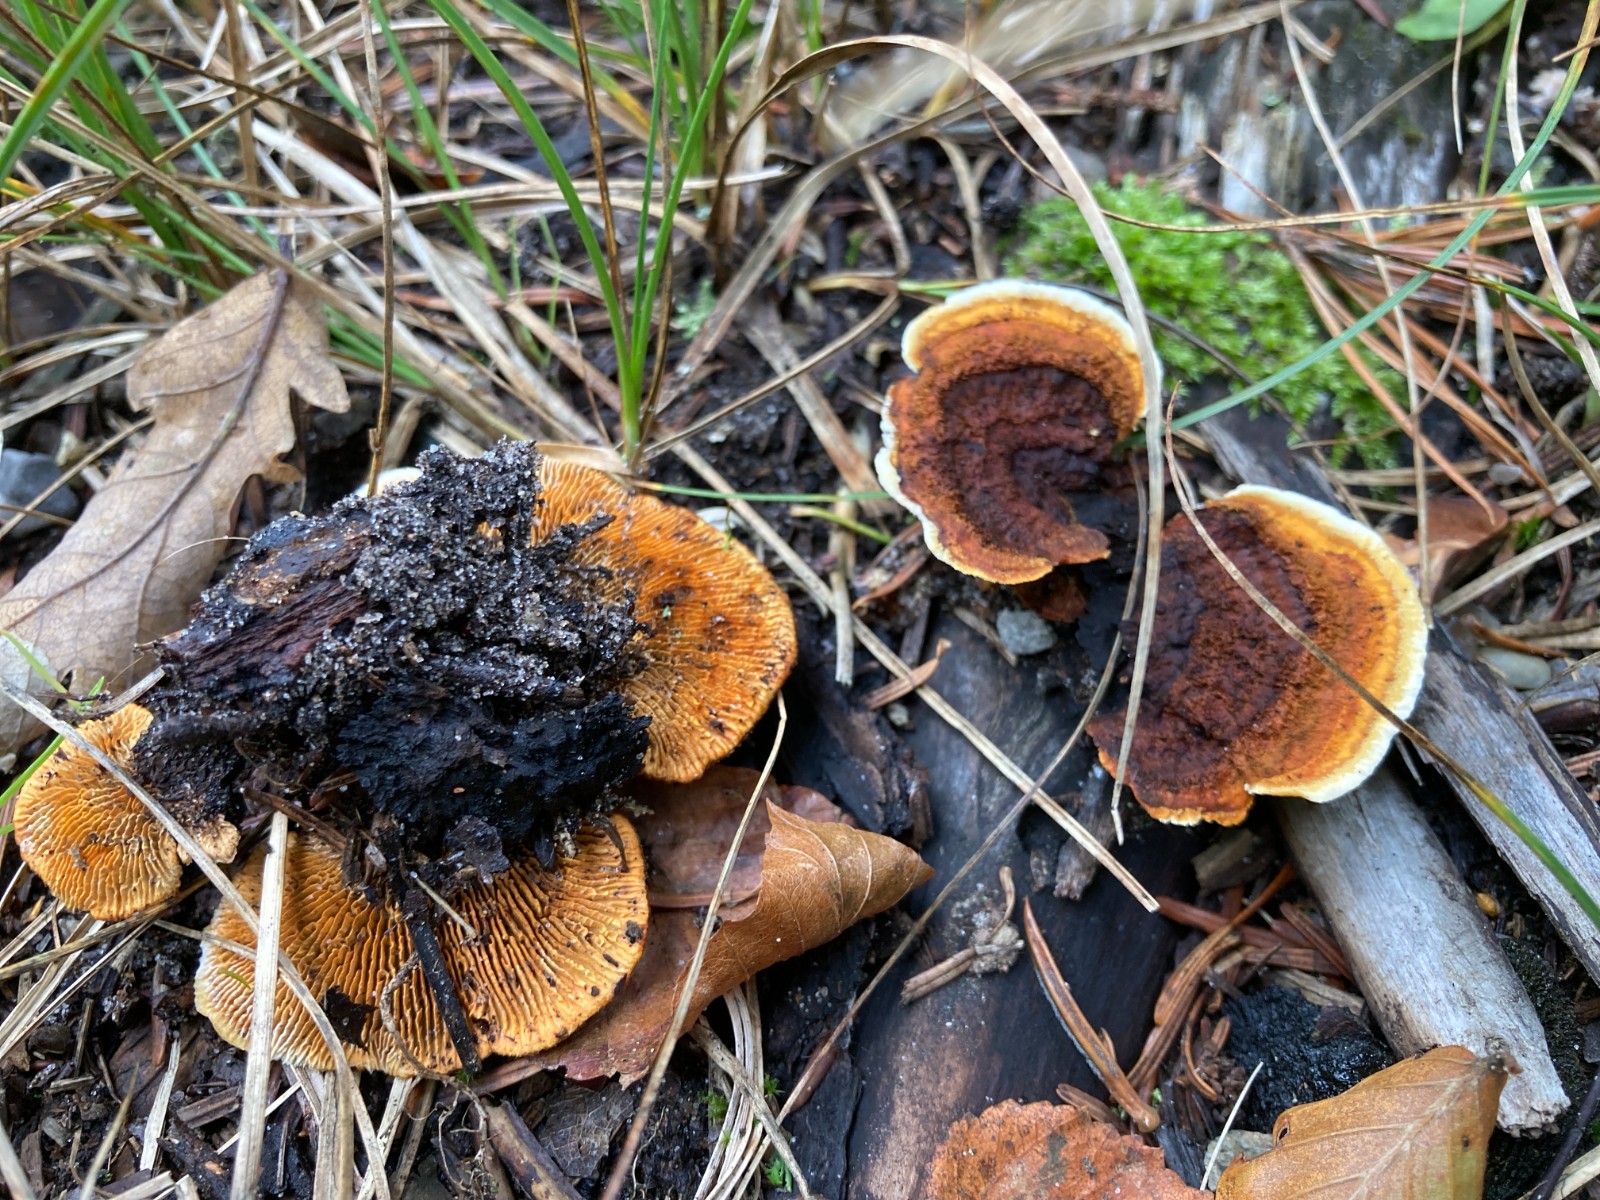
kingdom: Fungi
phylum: Basidiomycota
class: Agaricomycetes
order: Gloeophyllales
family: Gloeophyllaceae
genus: Gloeophyllum
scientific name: Gloeophyllum sepiarium
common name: fyrre-korkhat
